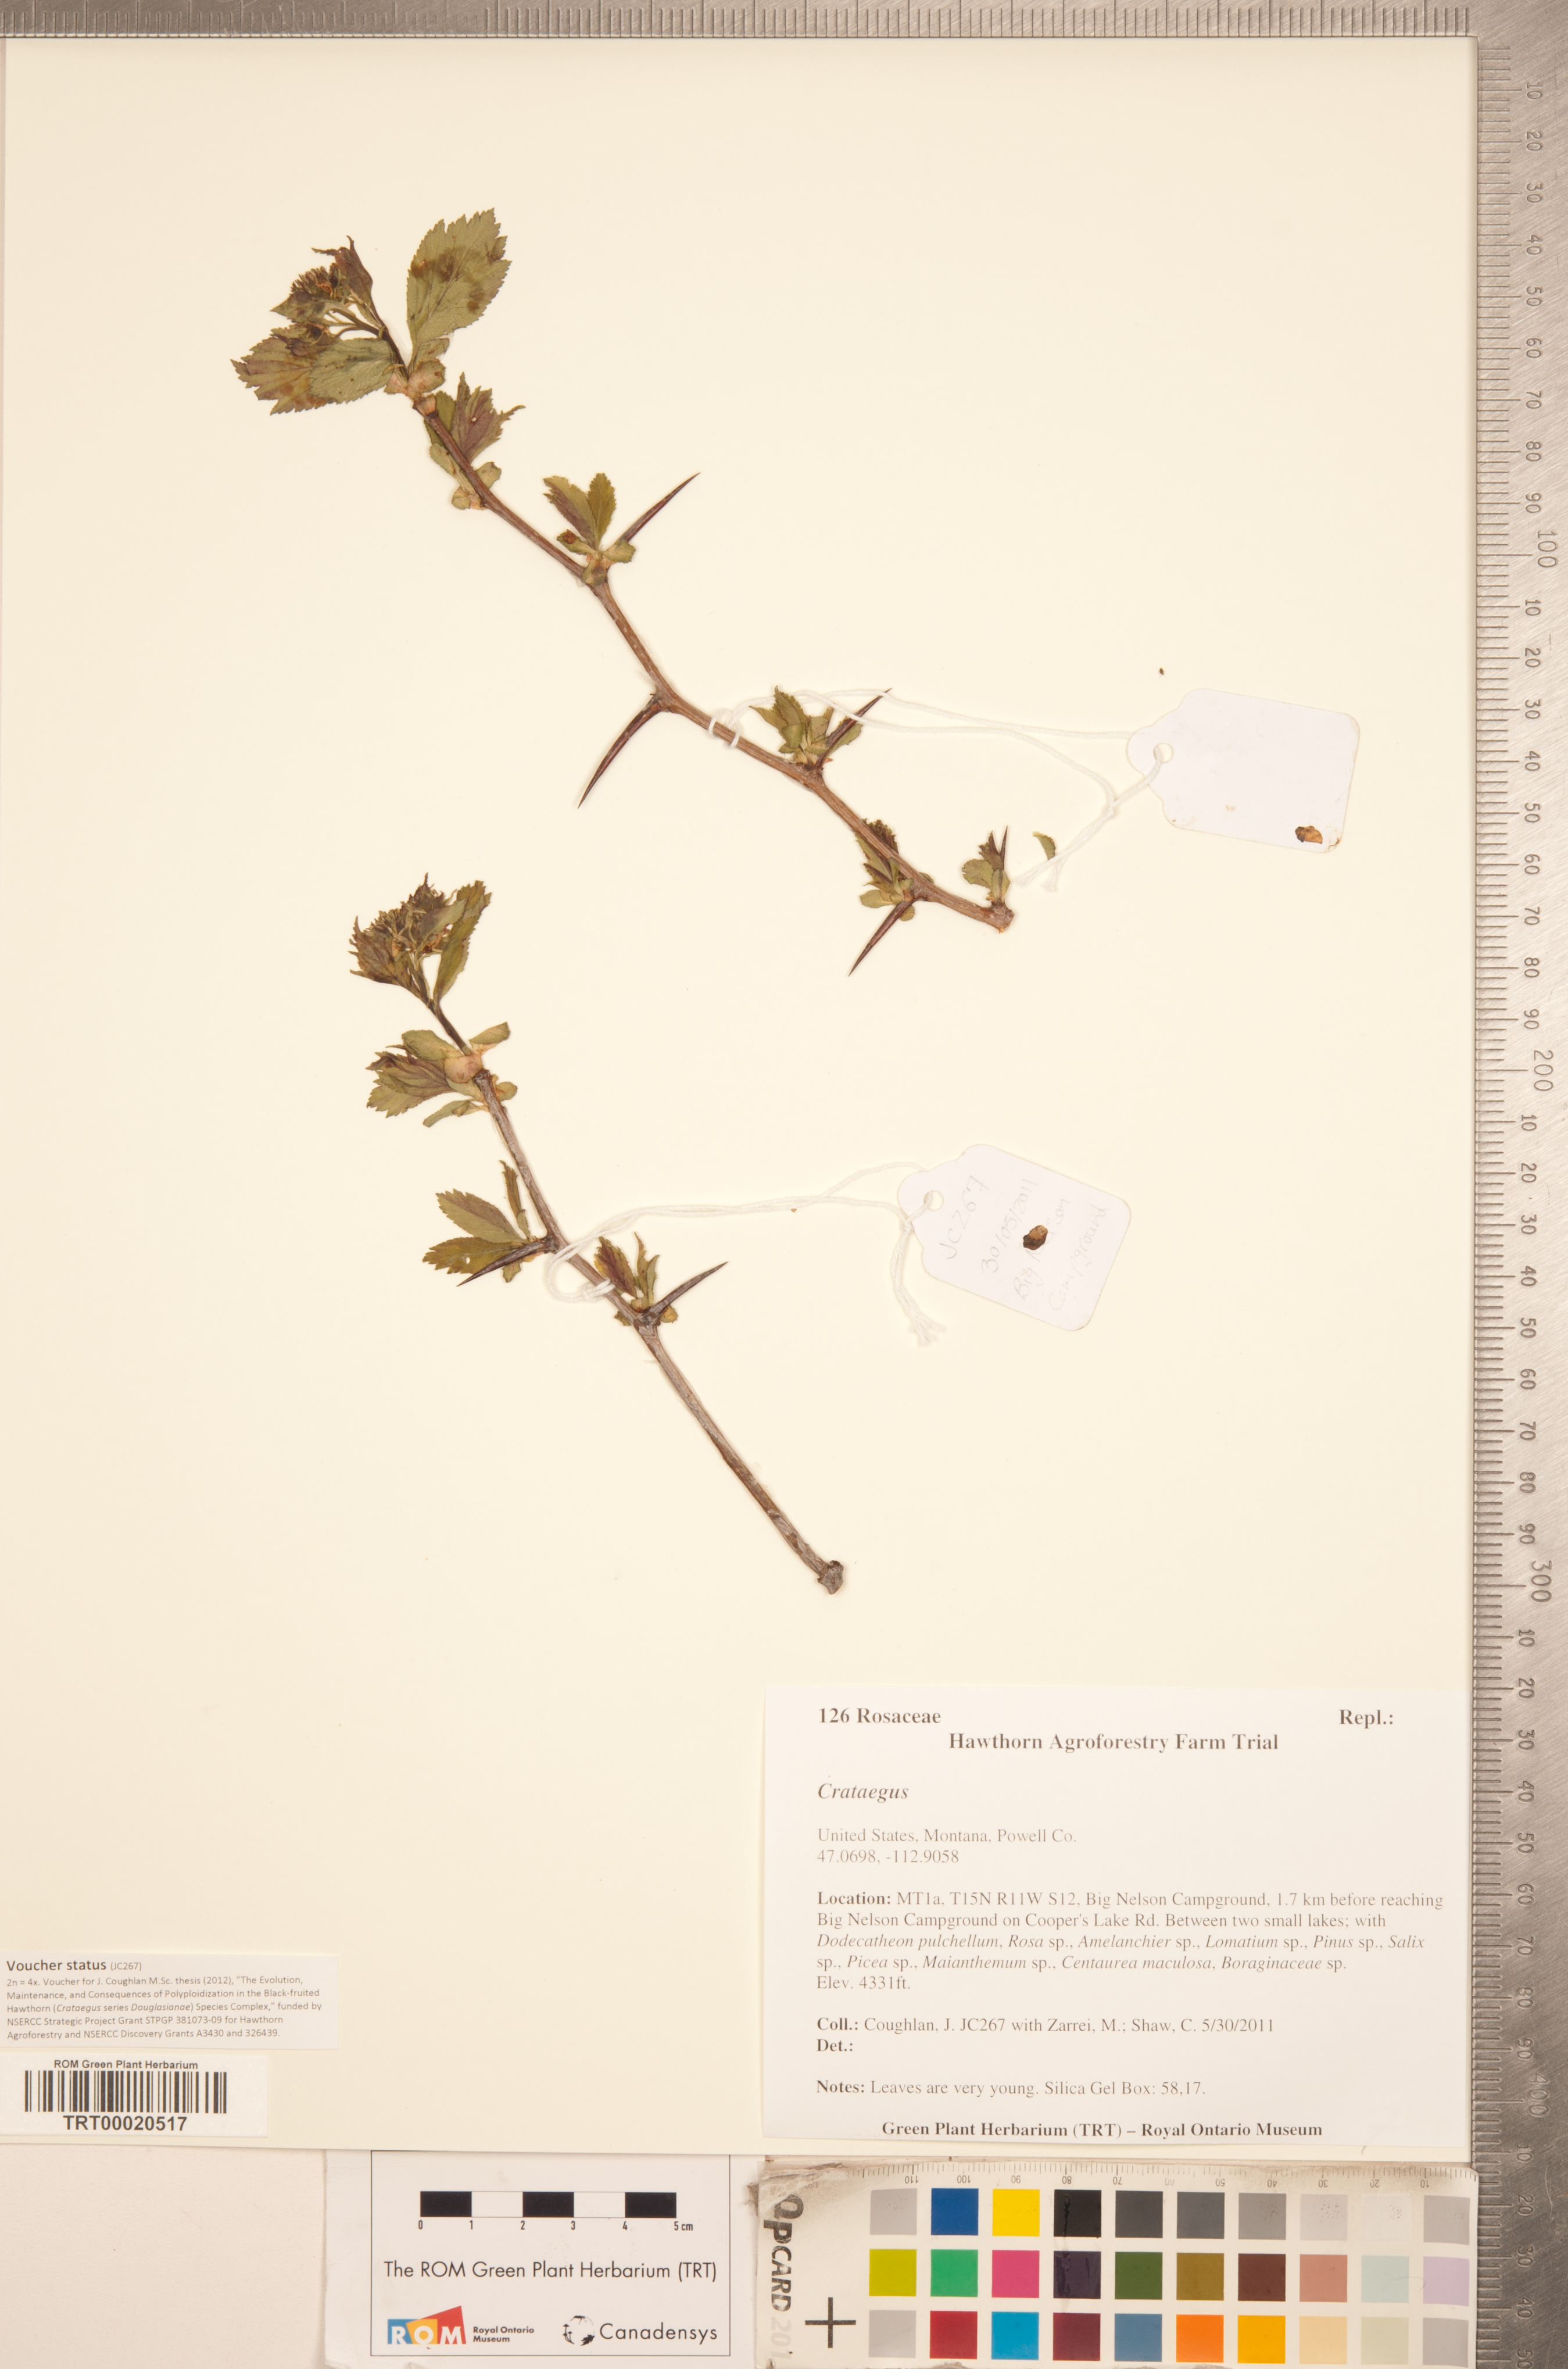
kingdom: Plantae
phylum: Tracheophyta
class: Magnoliopsida
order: Rosales
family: Rosaceae
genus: Crataegus
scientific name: Crataegus
